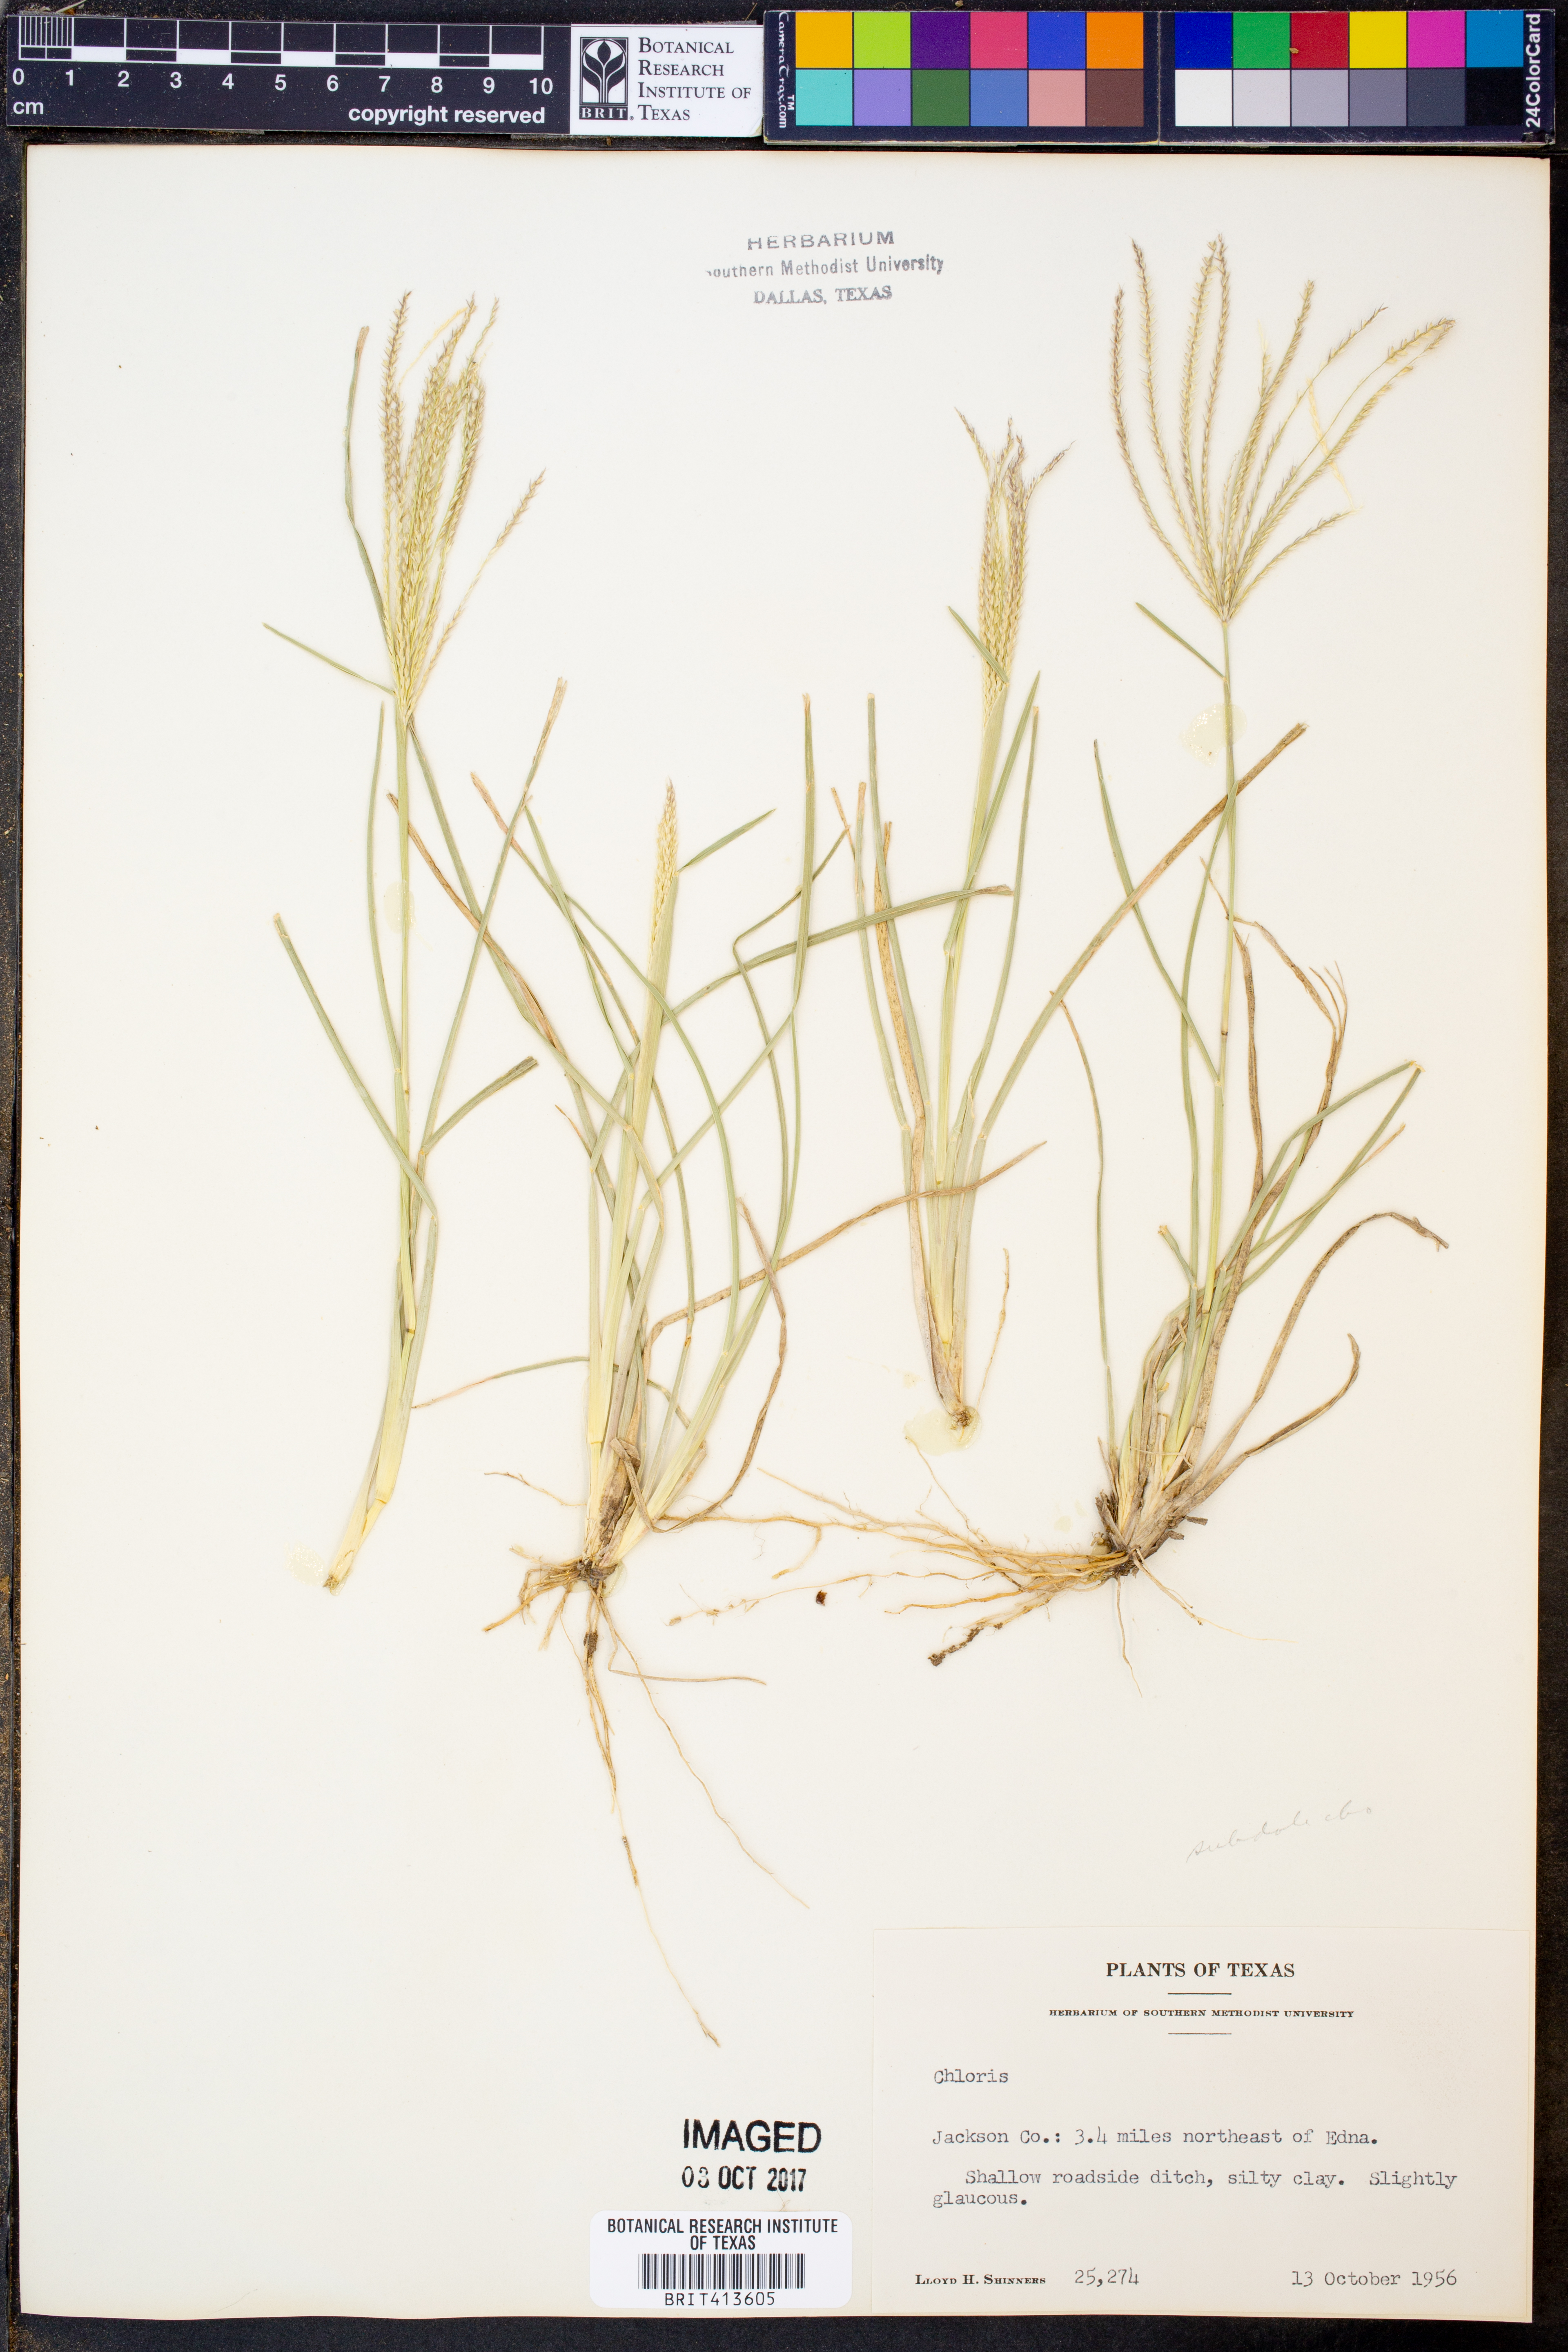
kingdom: Plantae
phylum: Tracheophyta
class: Liliopsida
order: Poales
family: Poaceae
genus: Chloris
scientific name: Chloris
